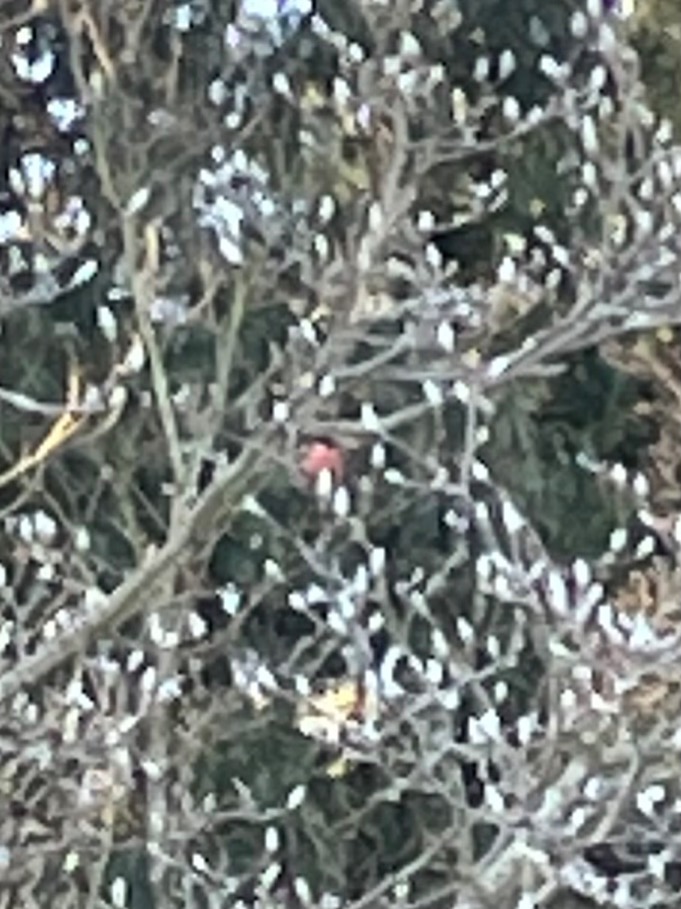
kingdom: Animalia
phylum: Chordata
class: Aves
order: Passeriformes
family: Fringillidae
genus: Pyrrhula
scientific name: Pyrrhula pyrrhula
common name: Dompap
